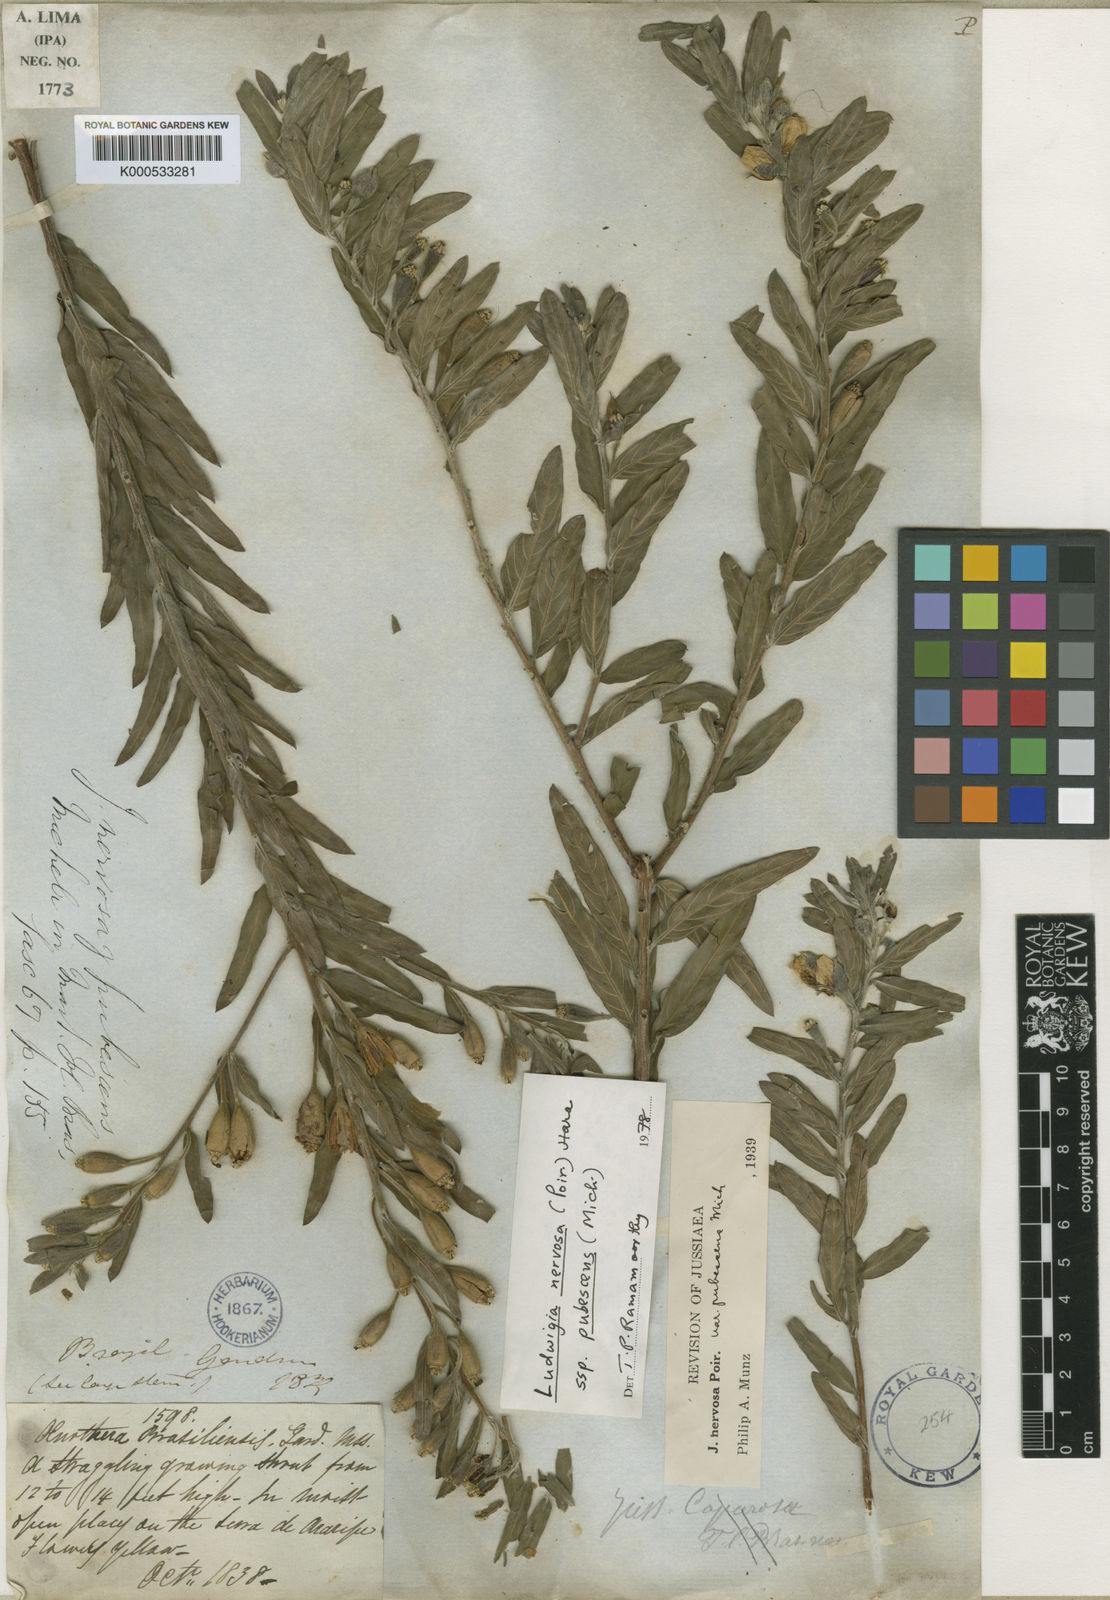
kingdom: Plantae
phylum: Tracheophyta
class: Magnoliopsida
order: Myrtales
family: Onagraceae
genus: Ludwigia
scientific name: Ludwigia nervosa
